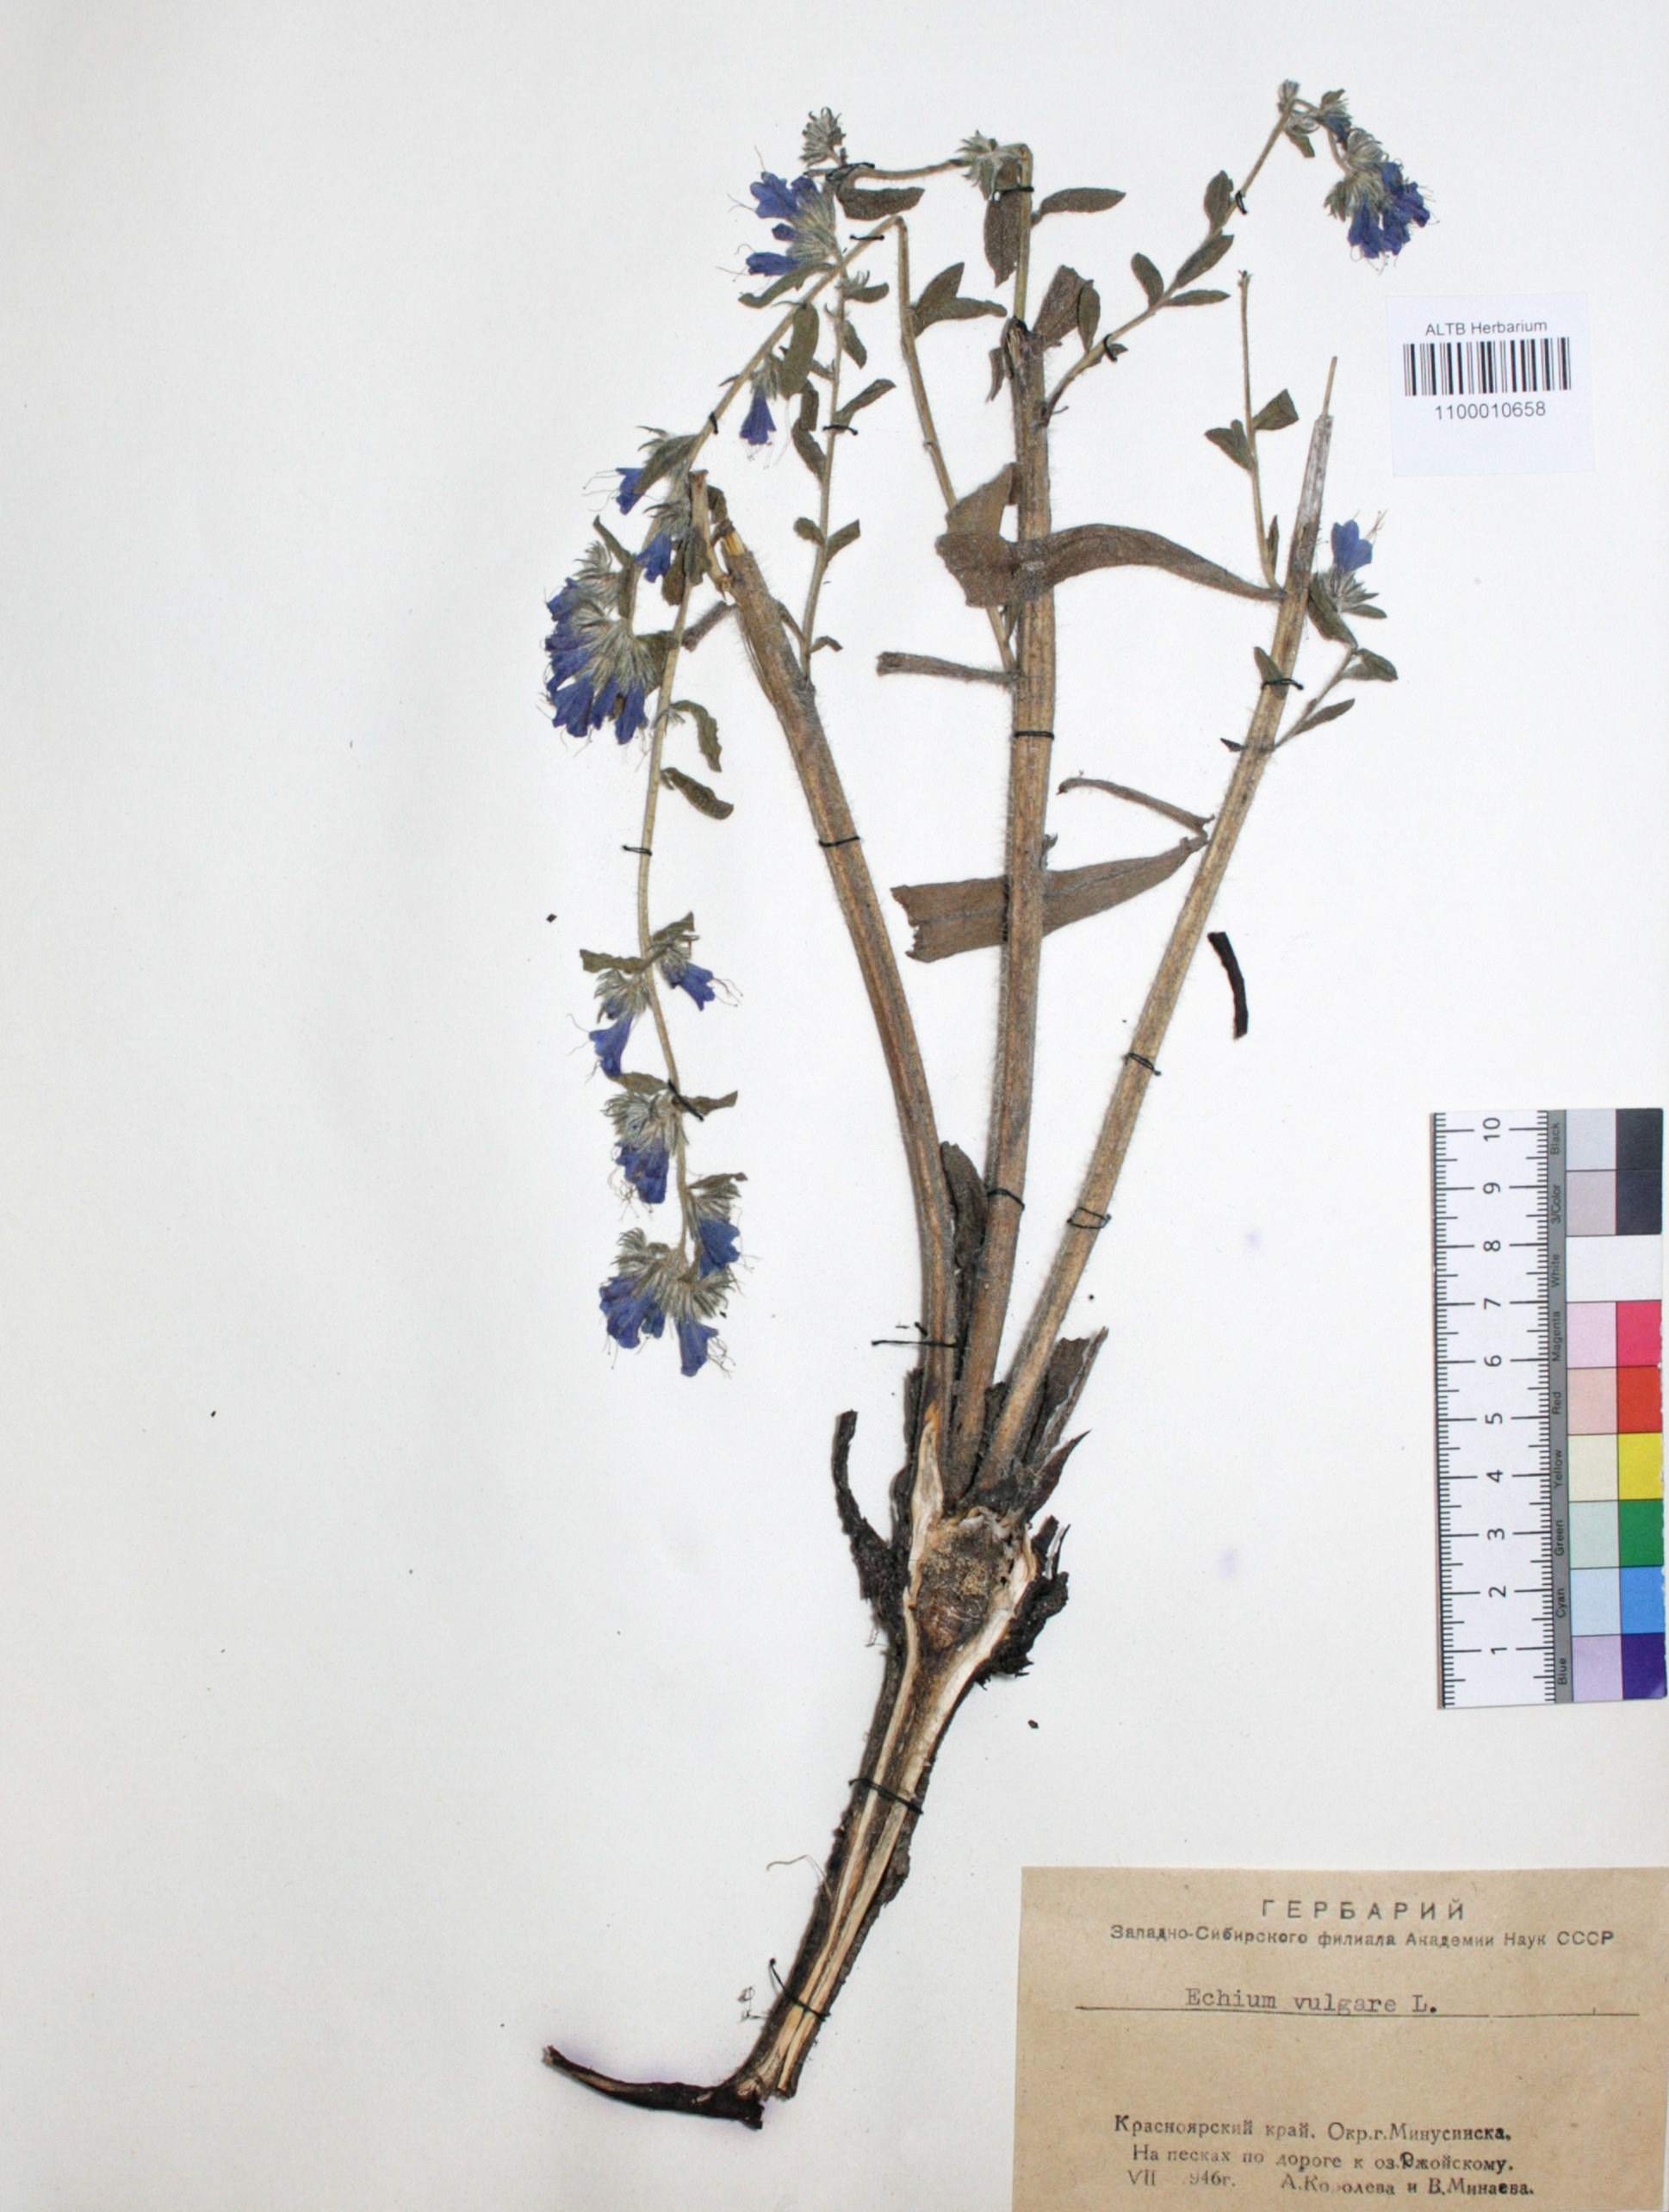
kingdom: Plantae
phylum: Tracheophyta
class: Liliopsida
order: Asparagales
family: Amaryllidaceae
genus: Allium
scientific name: Allium caeruleum
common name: Blue-of-the-heavens
